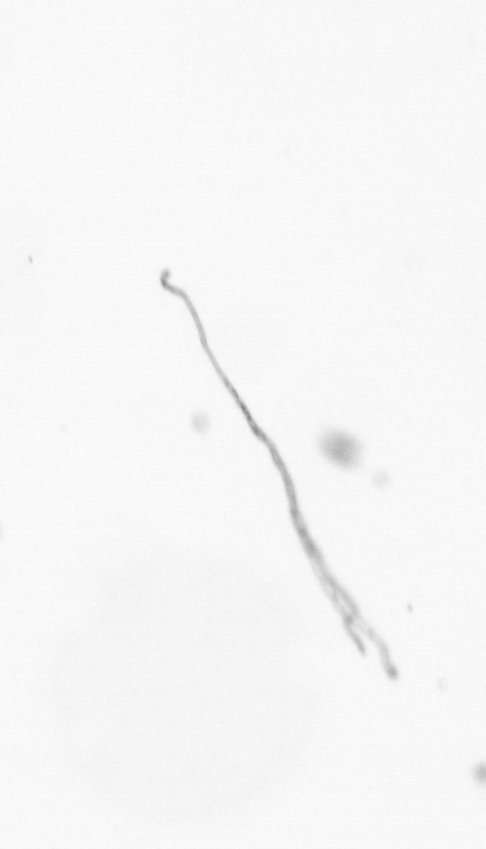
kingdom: Chromista
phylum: Ochrophyta
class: Bacillariophyceae
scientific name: Bacillariophyceae
